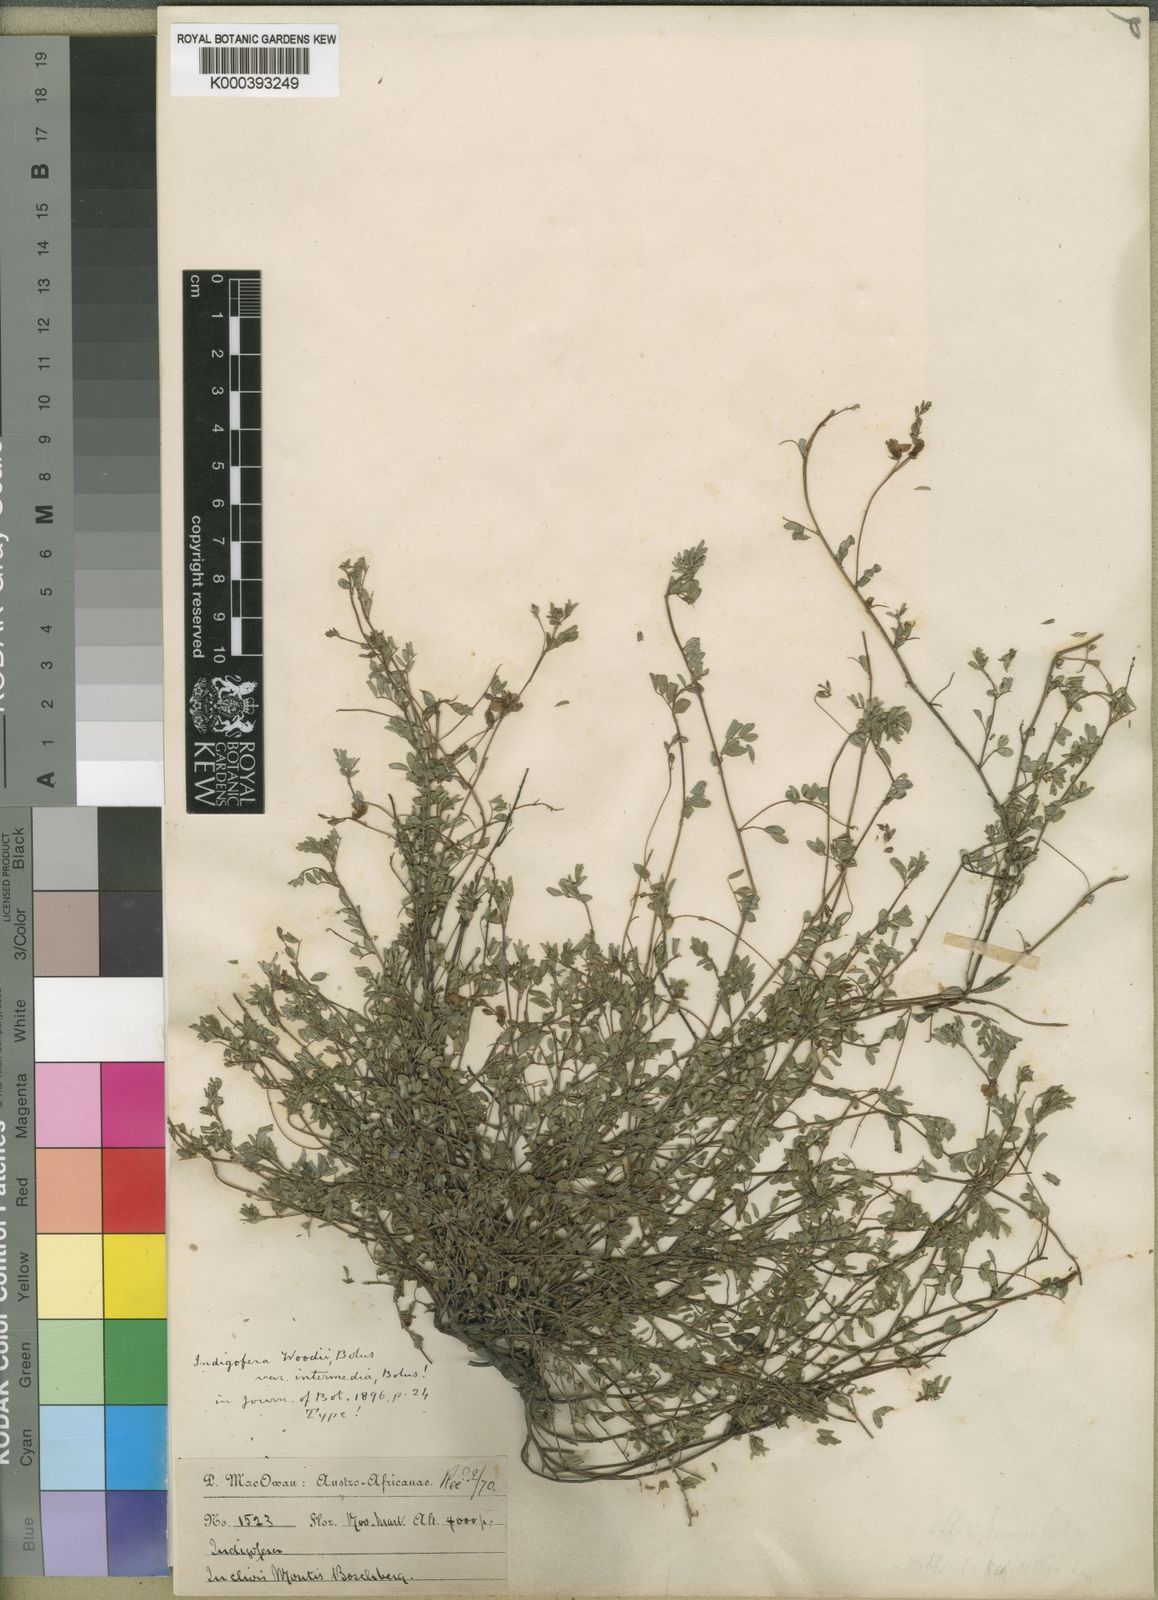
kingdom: Plantae
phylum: Tracheophyta
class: Magnoliopsida
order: Fabales
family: Fabaceae
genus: Indigofera
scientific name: Indigofera woodii
